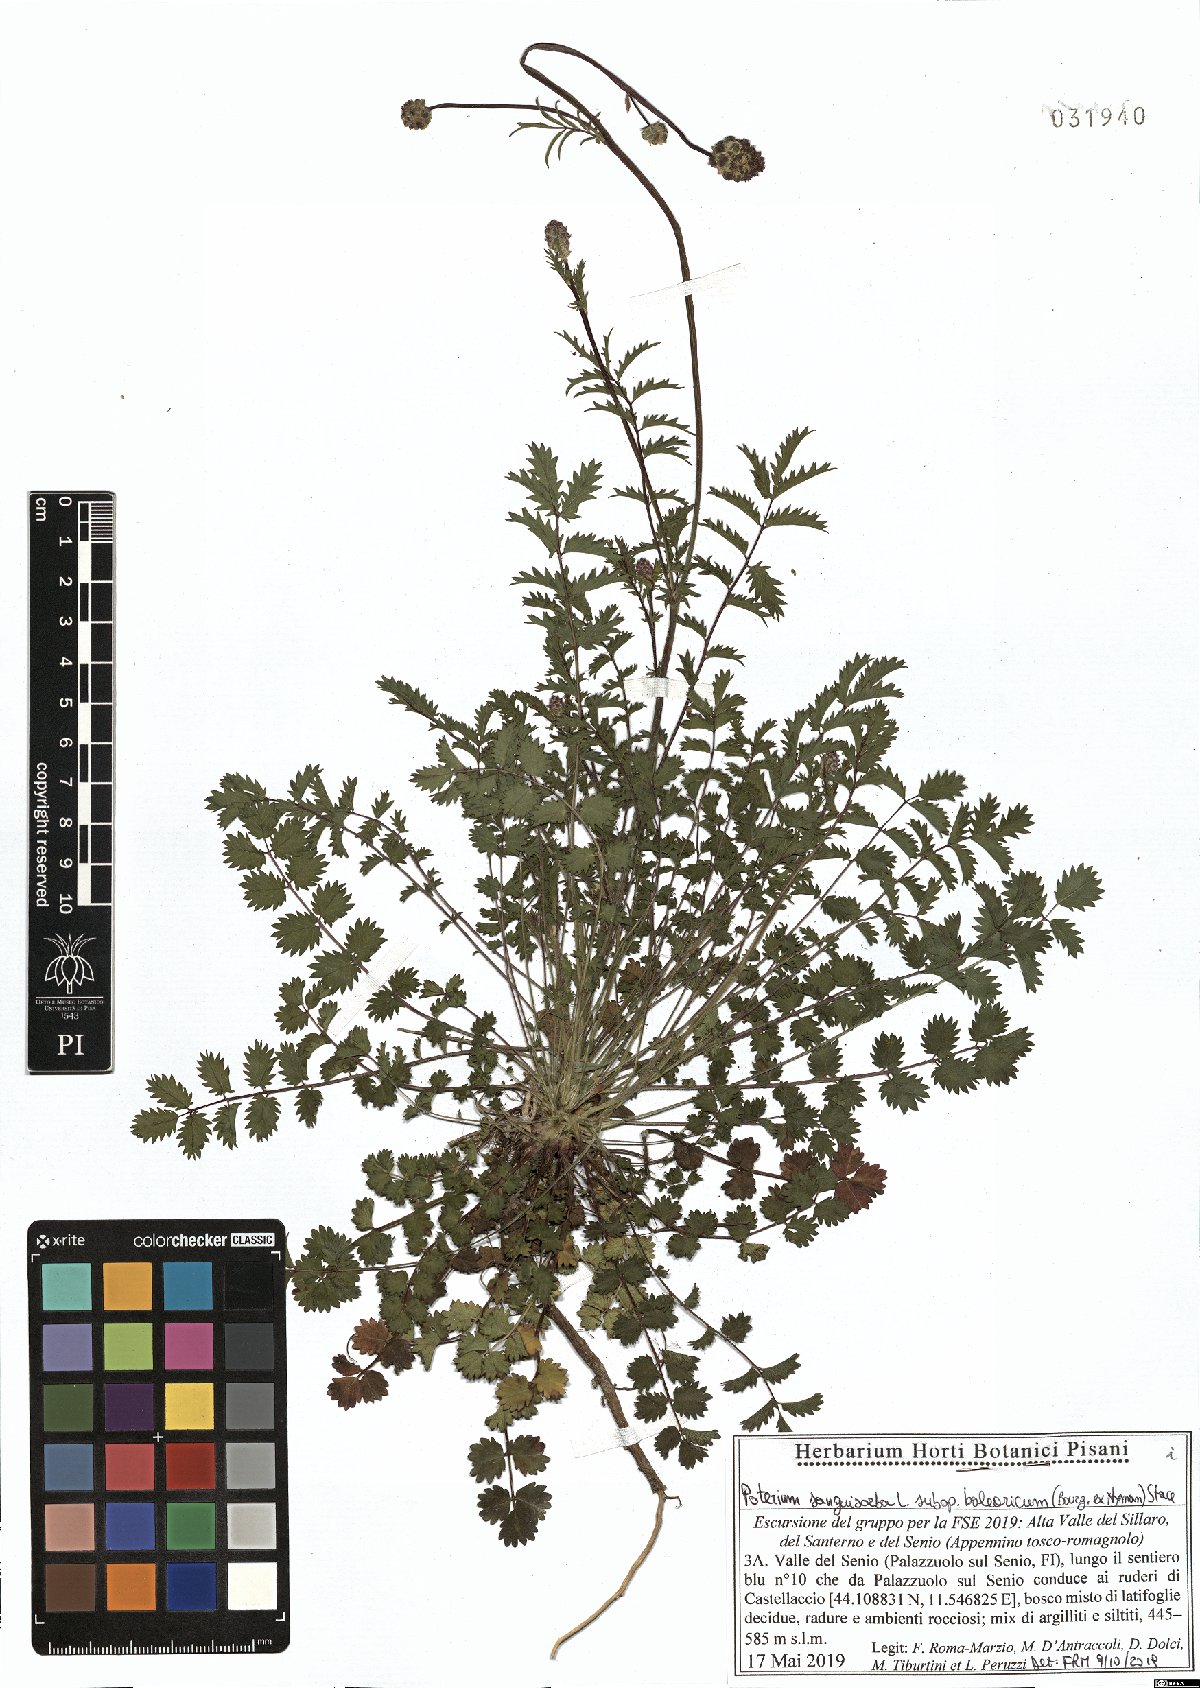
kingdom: Plantae
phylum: Tracheophyta
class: Magnoliopsida
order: Rosales
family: Rosaceae
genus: Poterium
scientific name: Poterium sanguisorba
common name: Salad burnet
